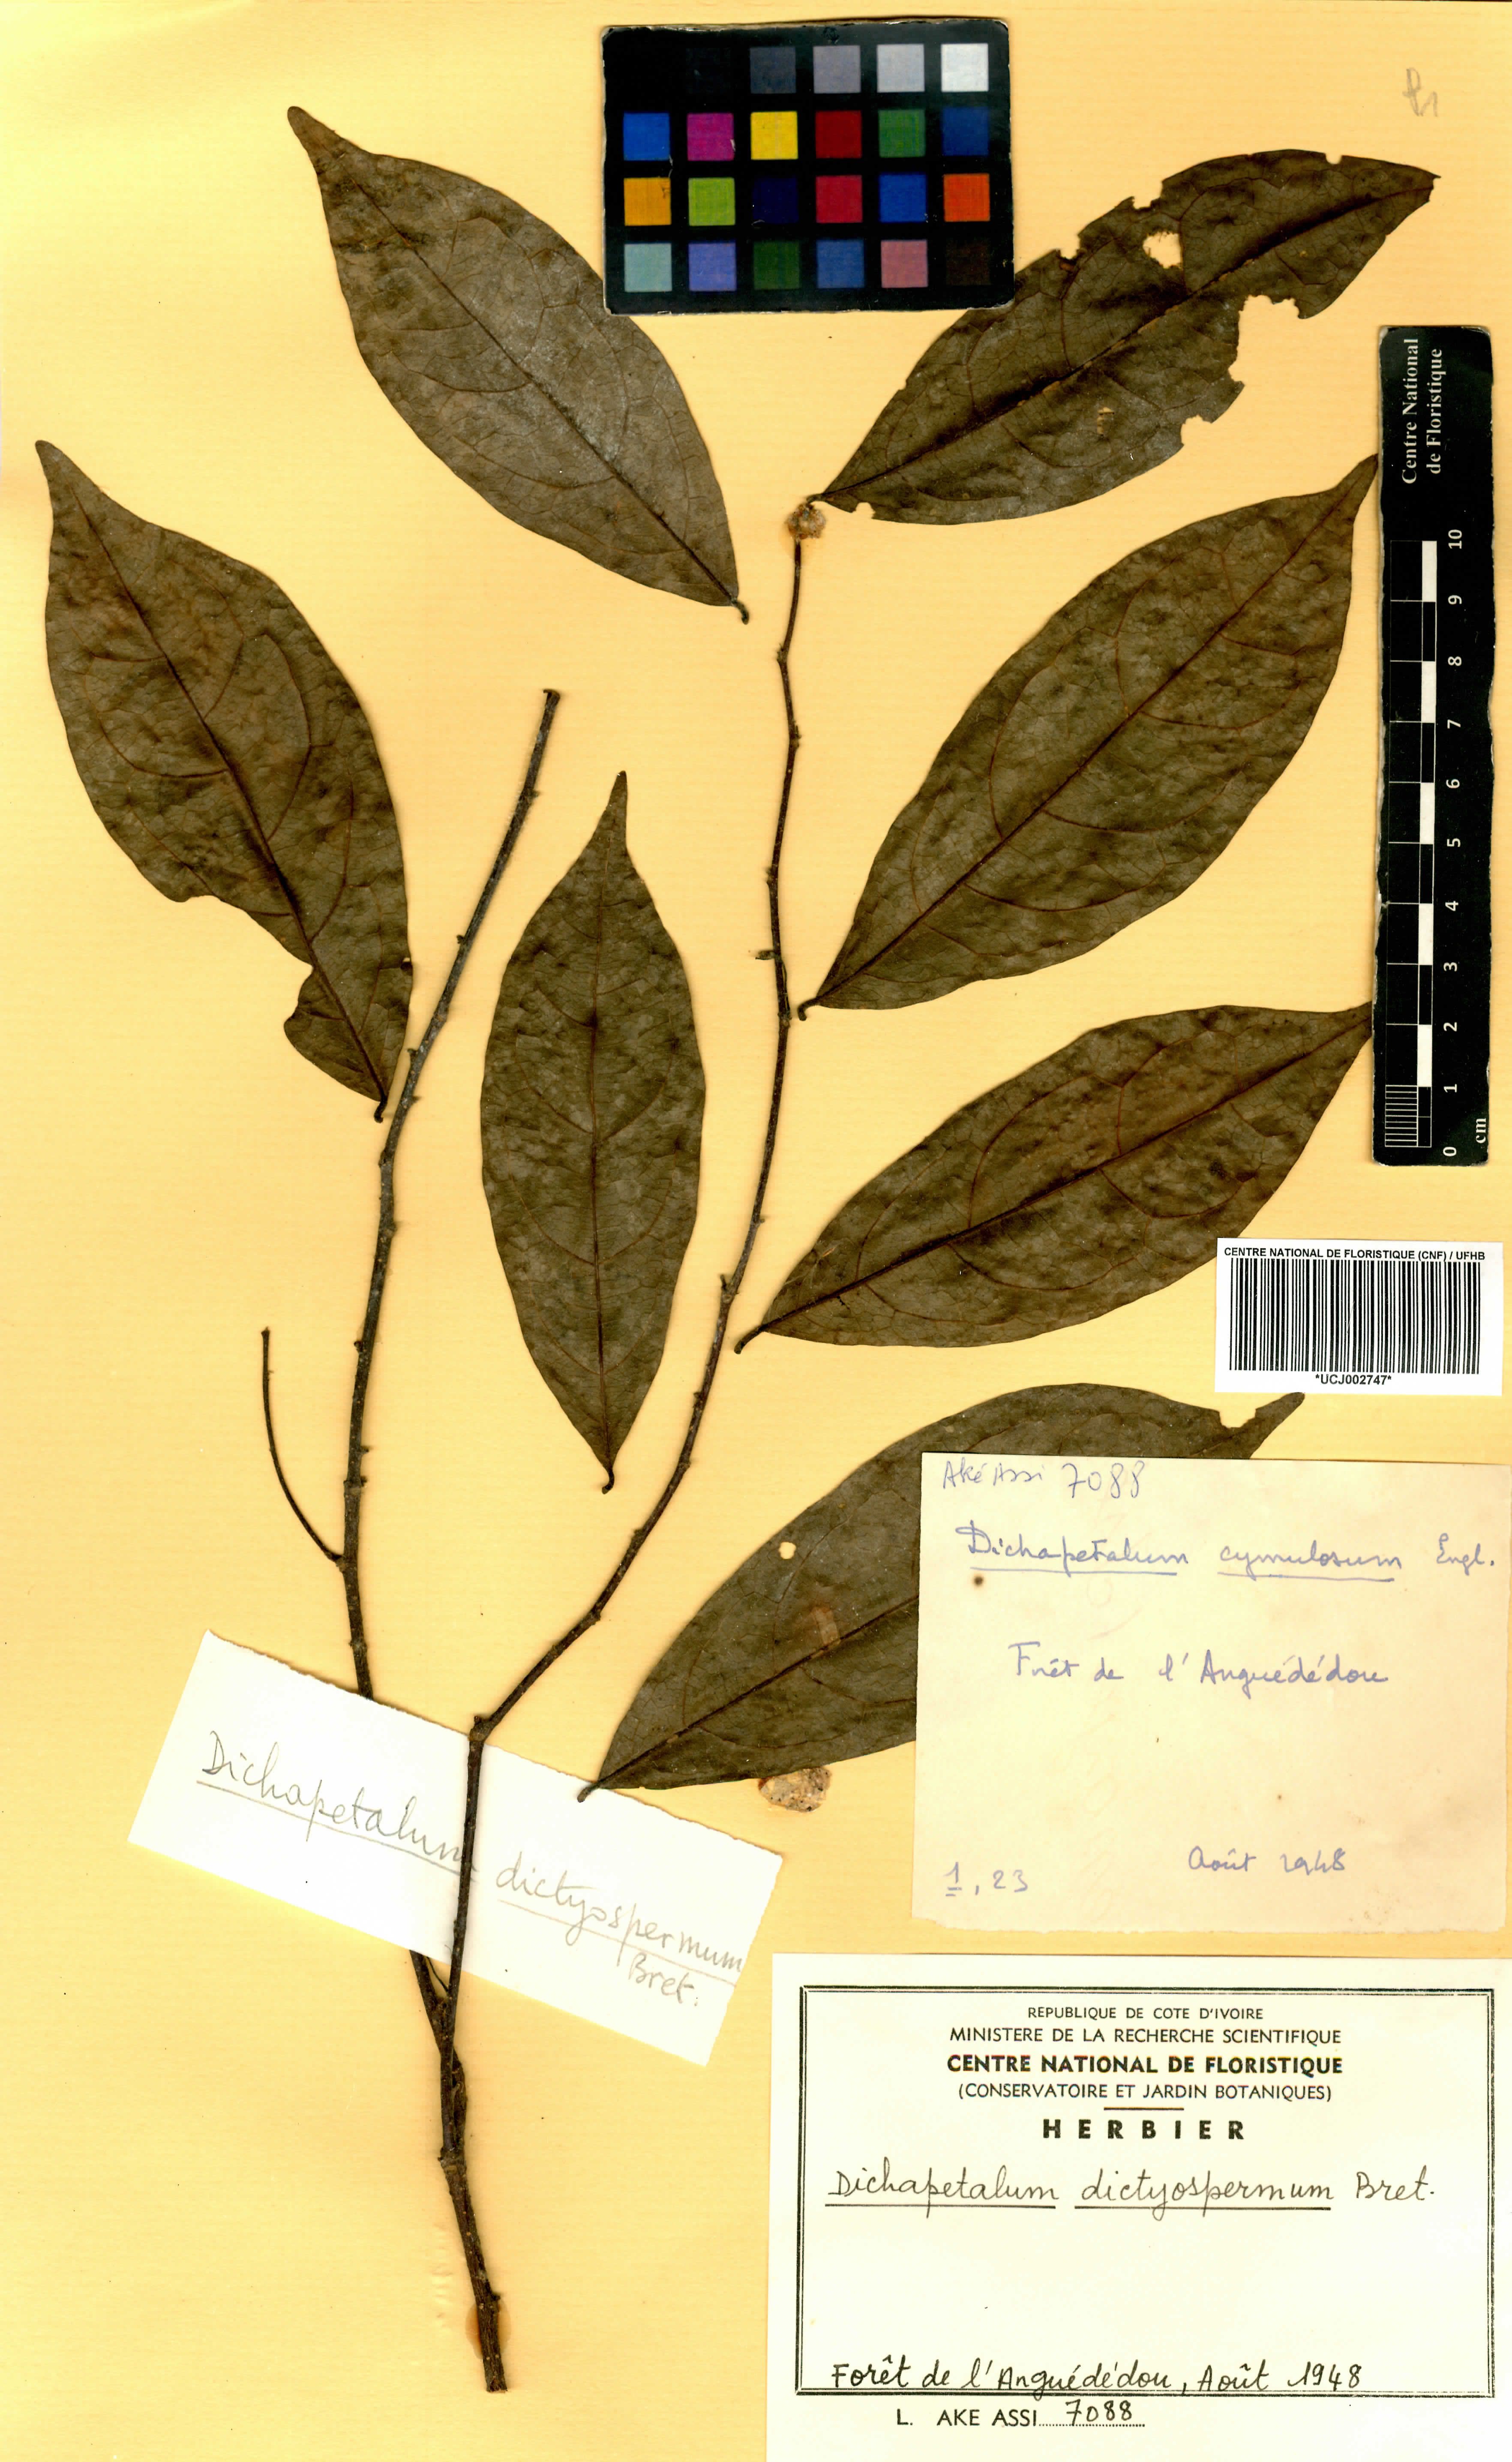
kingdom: Plantae
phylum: Tracheophyta
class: Magnoliopsida
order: Malpighiales
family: Dichapetalaceae
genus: Dichapetalum
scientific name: Dichapetalum dictyospermum
